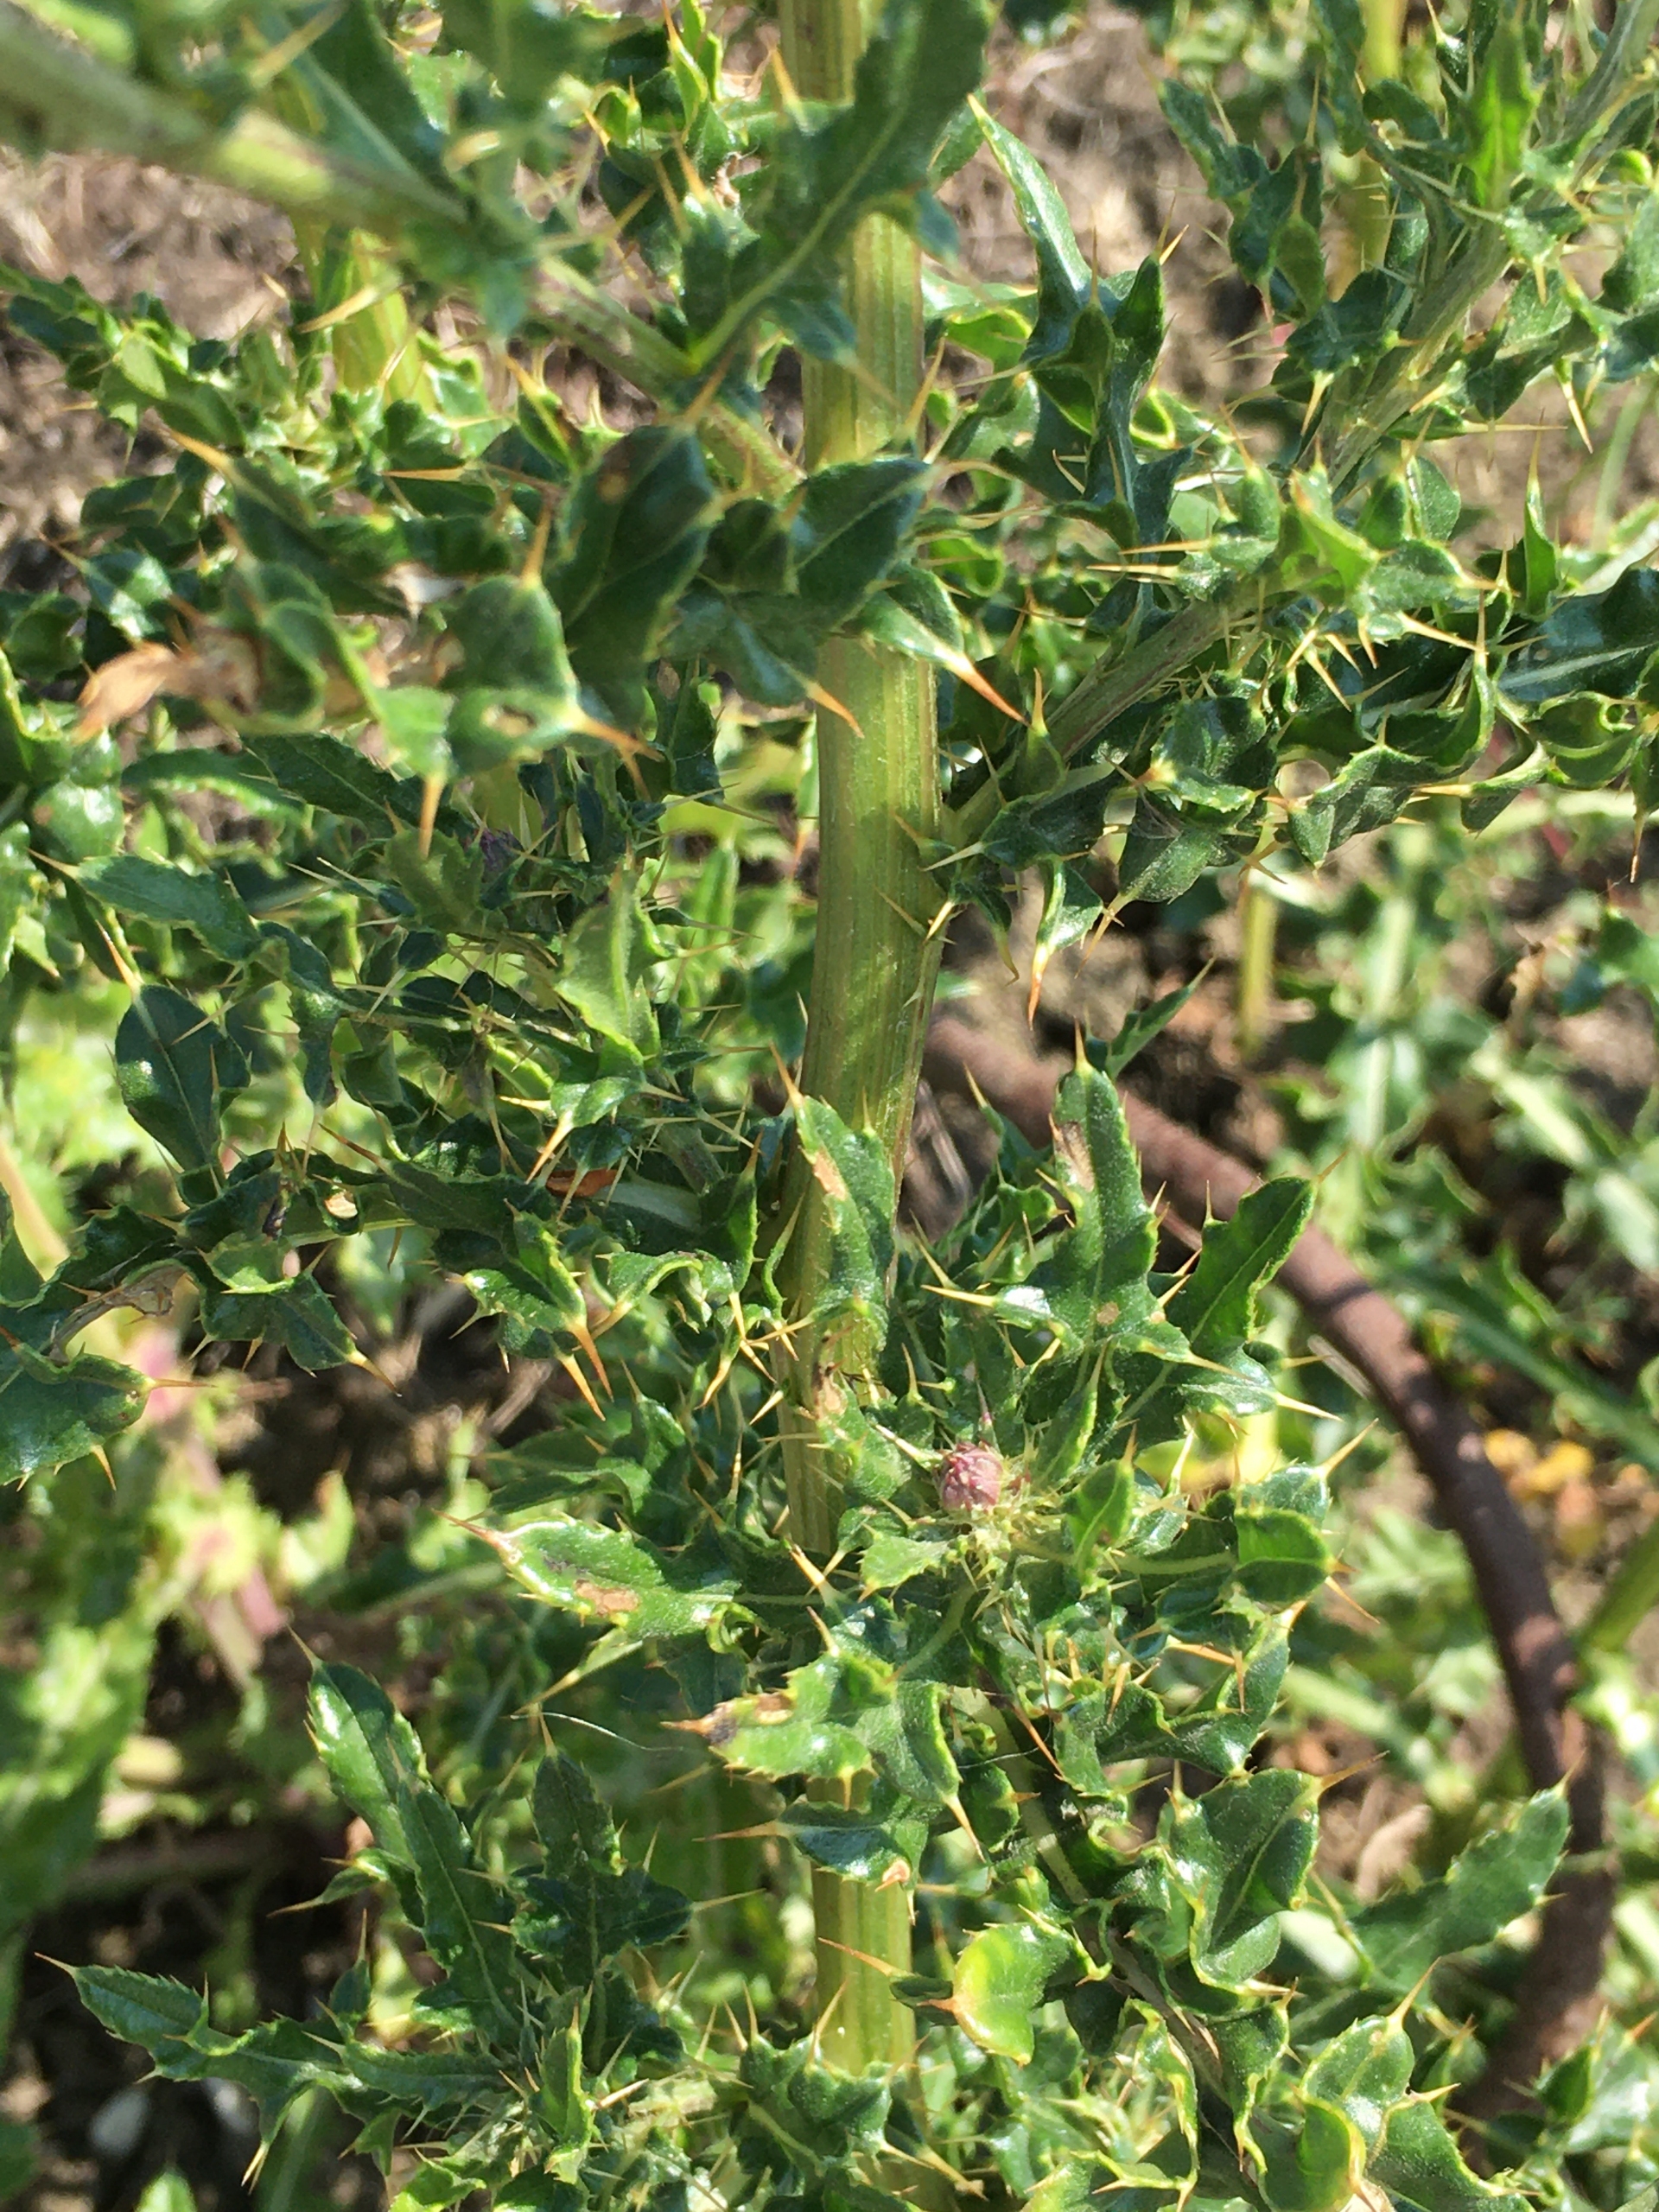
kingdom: Plantae
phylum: Tracheophyta
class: Magnoliopsida
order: Asterales
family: Asteraceae
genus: Cirsium
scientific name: Cirsium arvense
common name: Ager-tidsel
